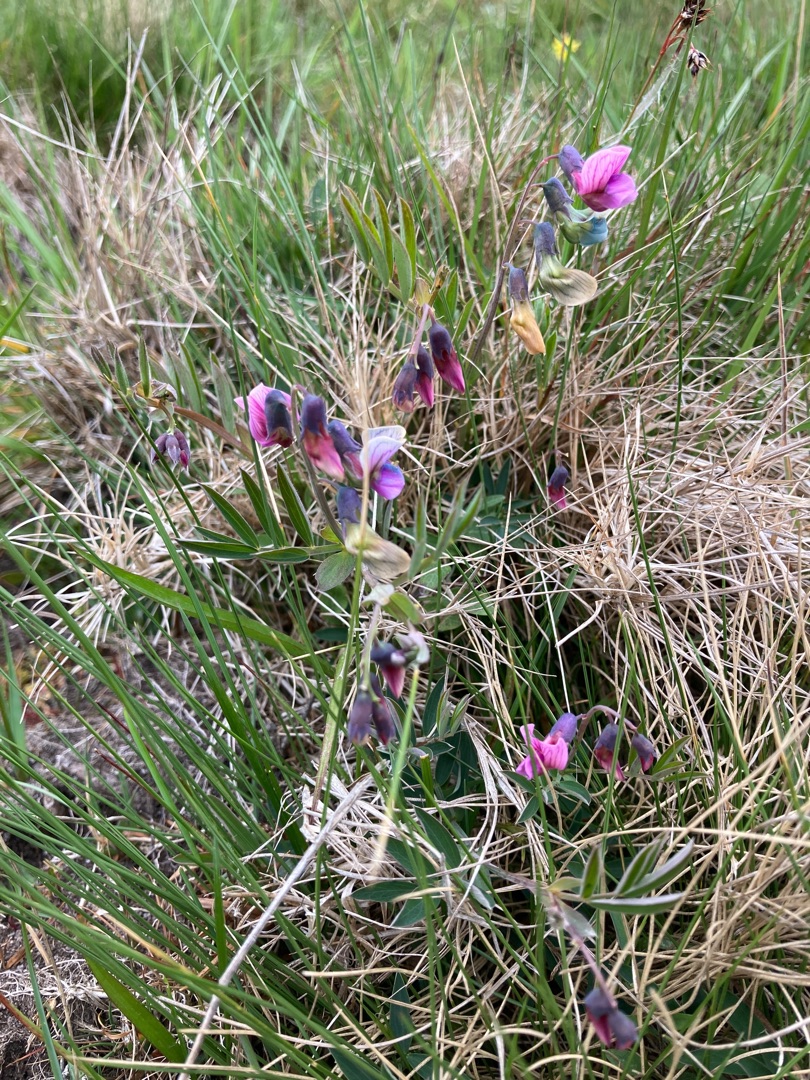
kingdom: Plantae
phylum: Tracheophyta
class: Magnoliopsida
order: Fabales
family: Fabaceae
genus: Lathyrus
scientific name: Lathyrus linifolius
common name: Krat-fladbælg
